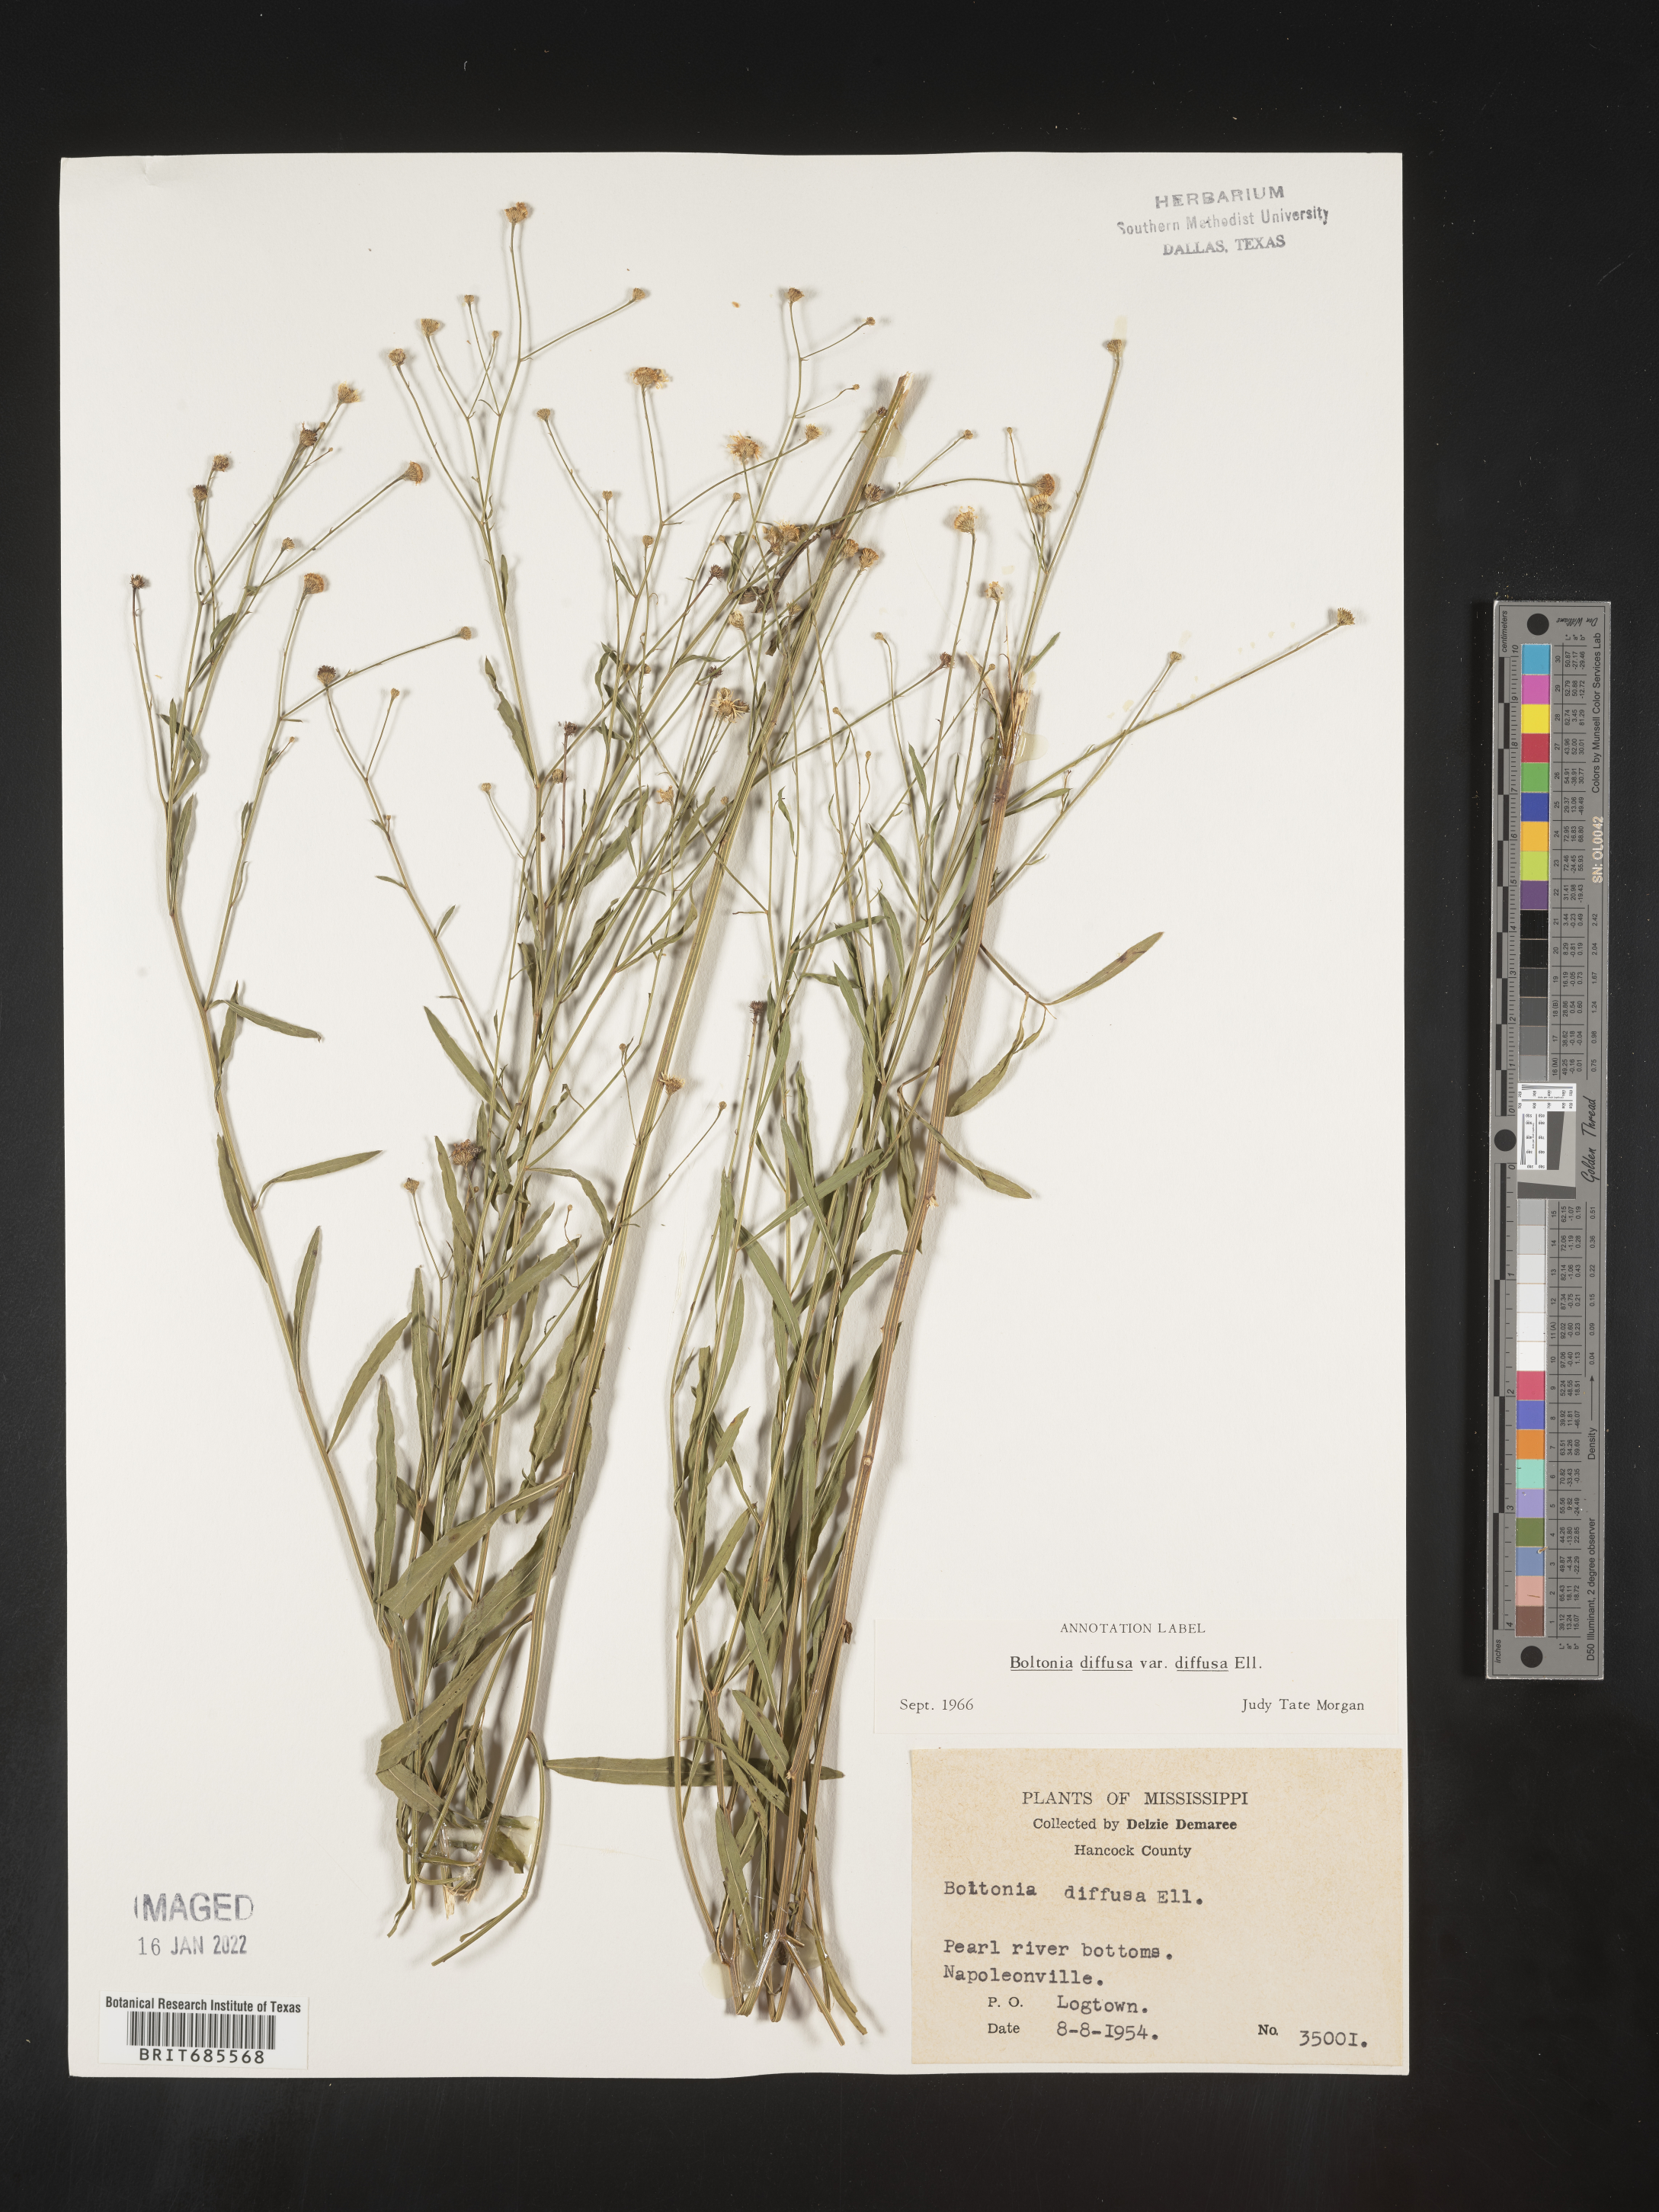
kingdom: Plantae
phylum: Tracheophyta
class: Magnoliopsida
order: Asterales
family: Asteraceae
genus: Boltonia
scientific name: Boltonia diffusa
